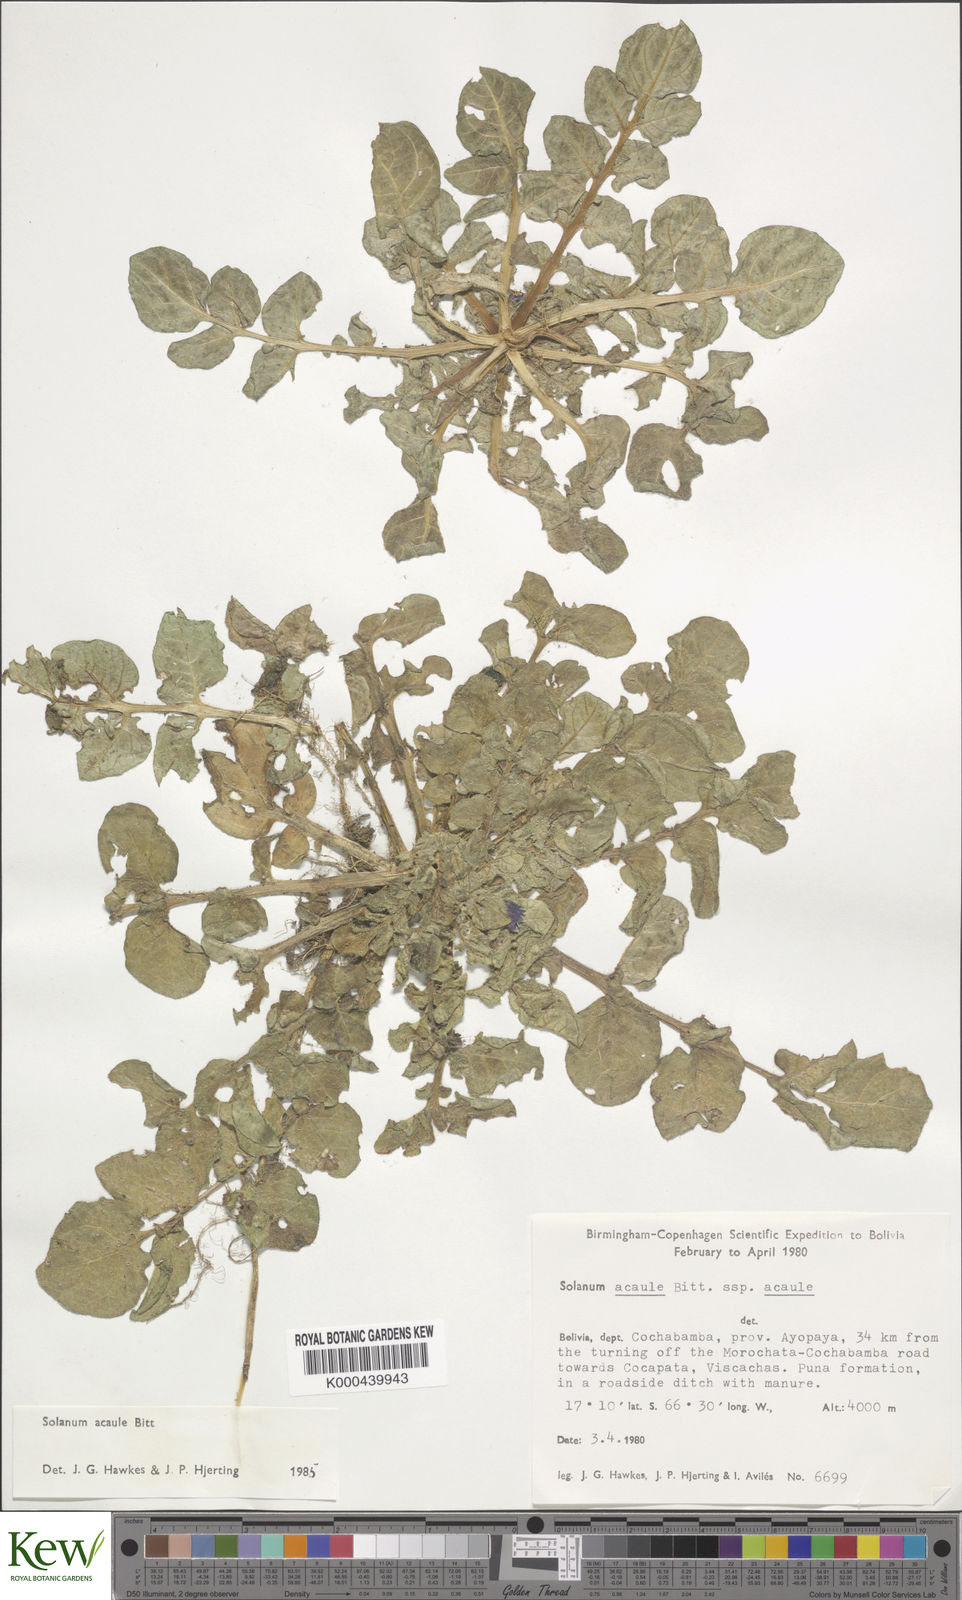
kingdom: Plantae
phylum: Tracheophyta
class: Magnoliopsida
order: Solanales
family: Solanaceae
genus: Solanum
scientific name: Solanum acaule
